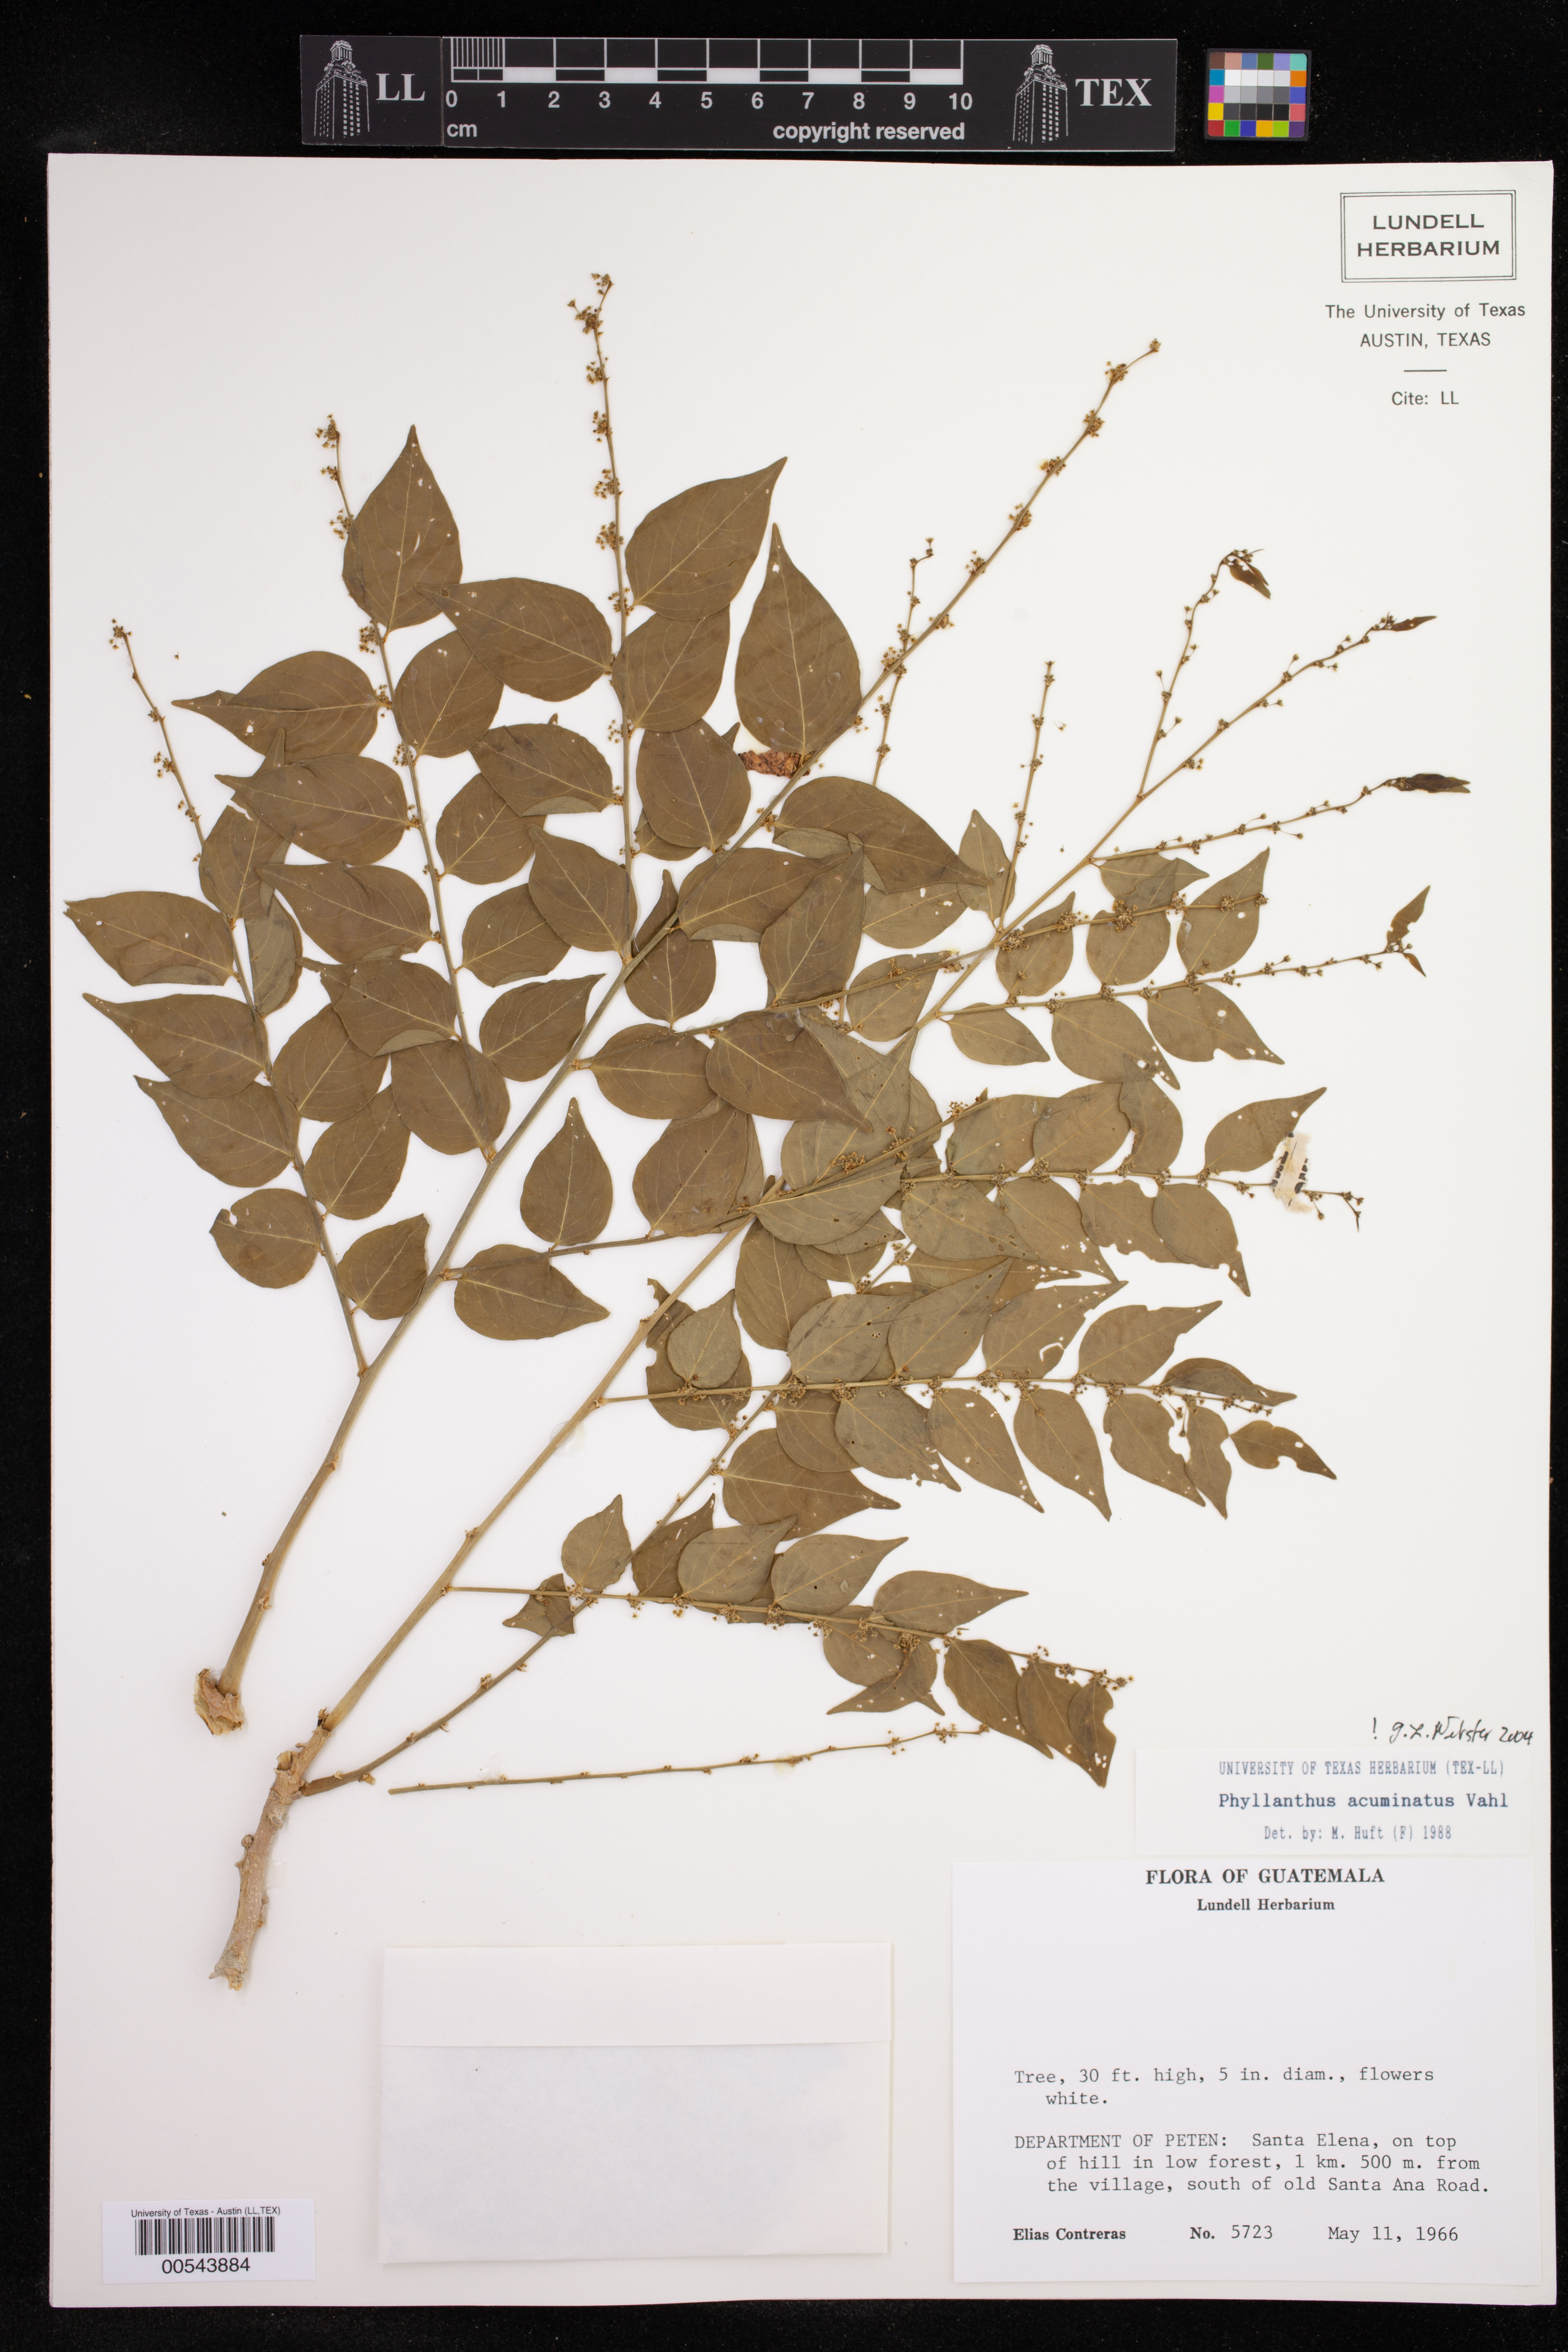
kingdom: Plantae
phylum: Tracheophyta
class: Magnoliopsida
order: Malpighiales
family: Phyllanthaceae
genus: Phyllanthus
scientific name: Phyllanthus acuminatus
